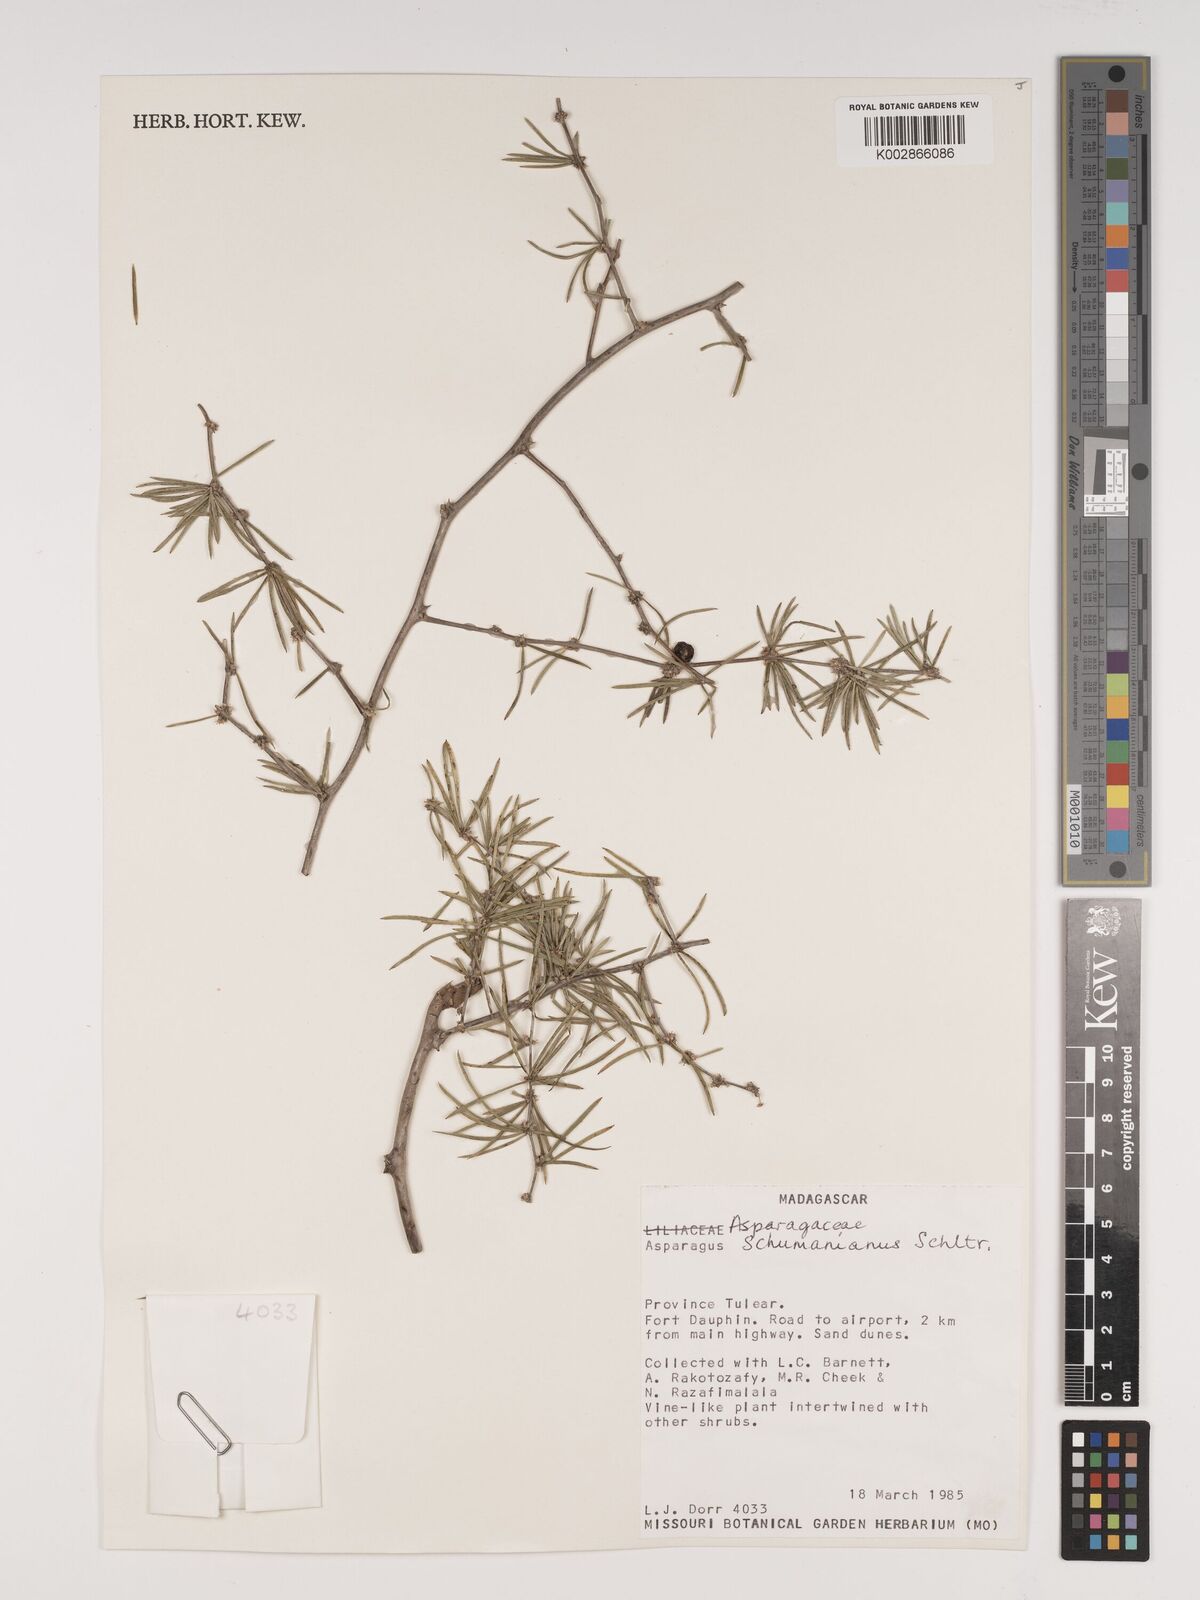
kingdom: Plantae
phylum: Tracheophyta
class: Liliopsida
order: Asparagales
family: Asparagaceae
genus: Asparagus
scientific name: Asparagus schumanianus
